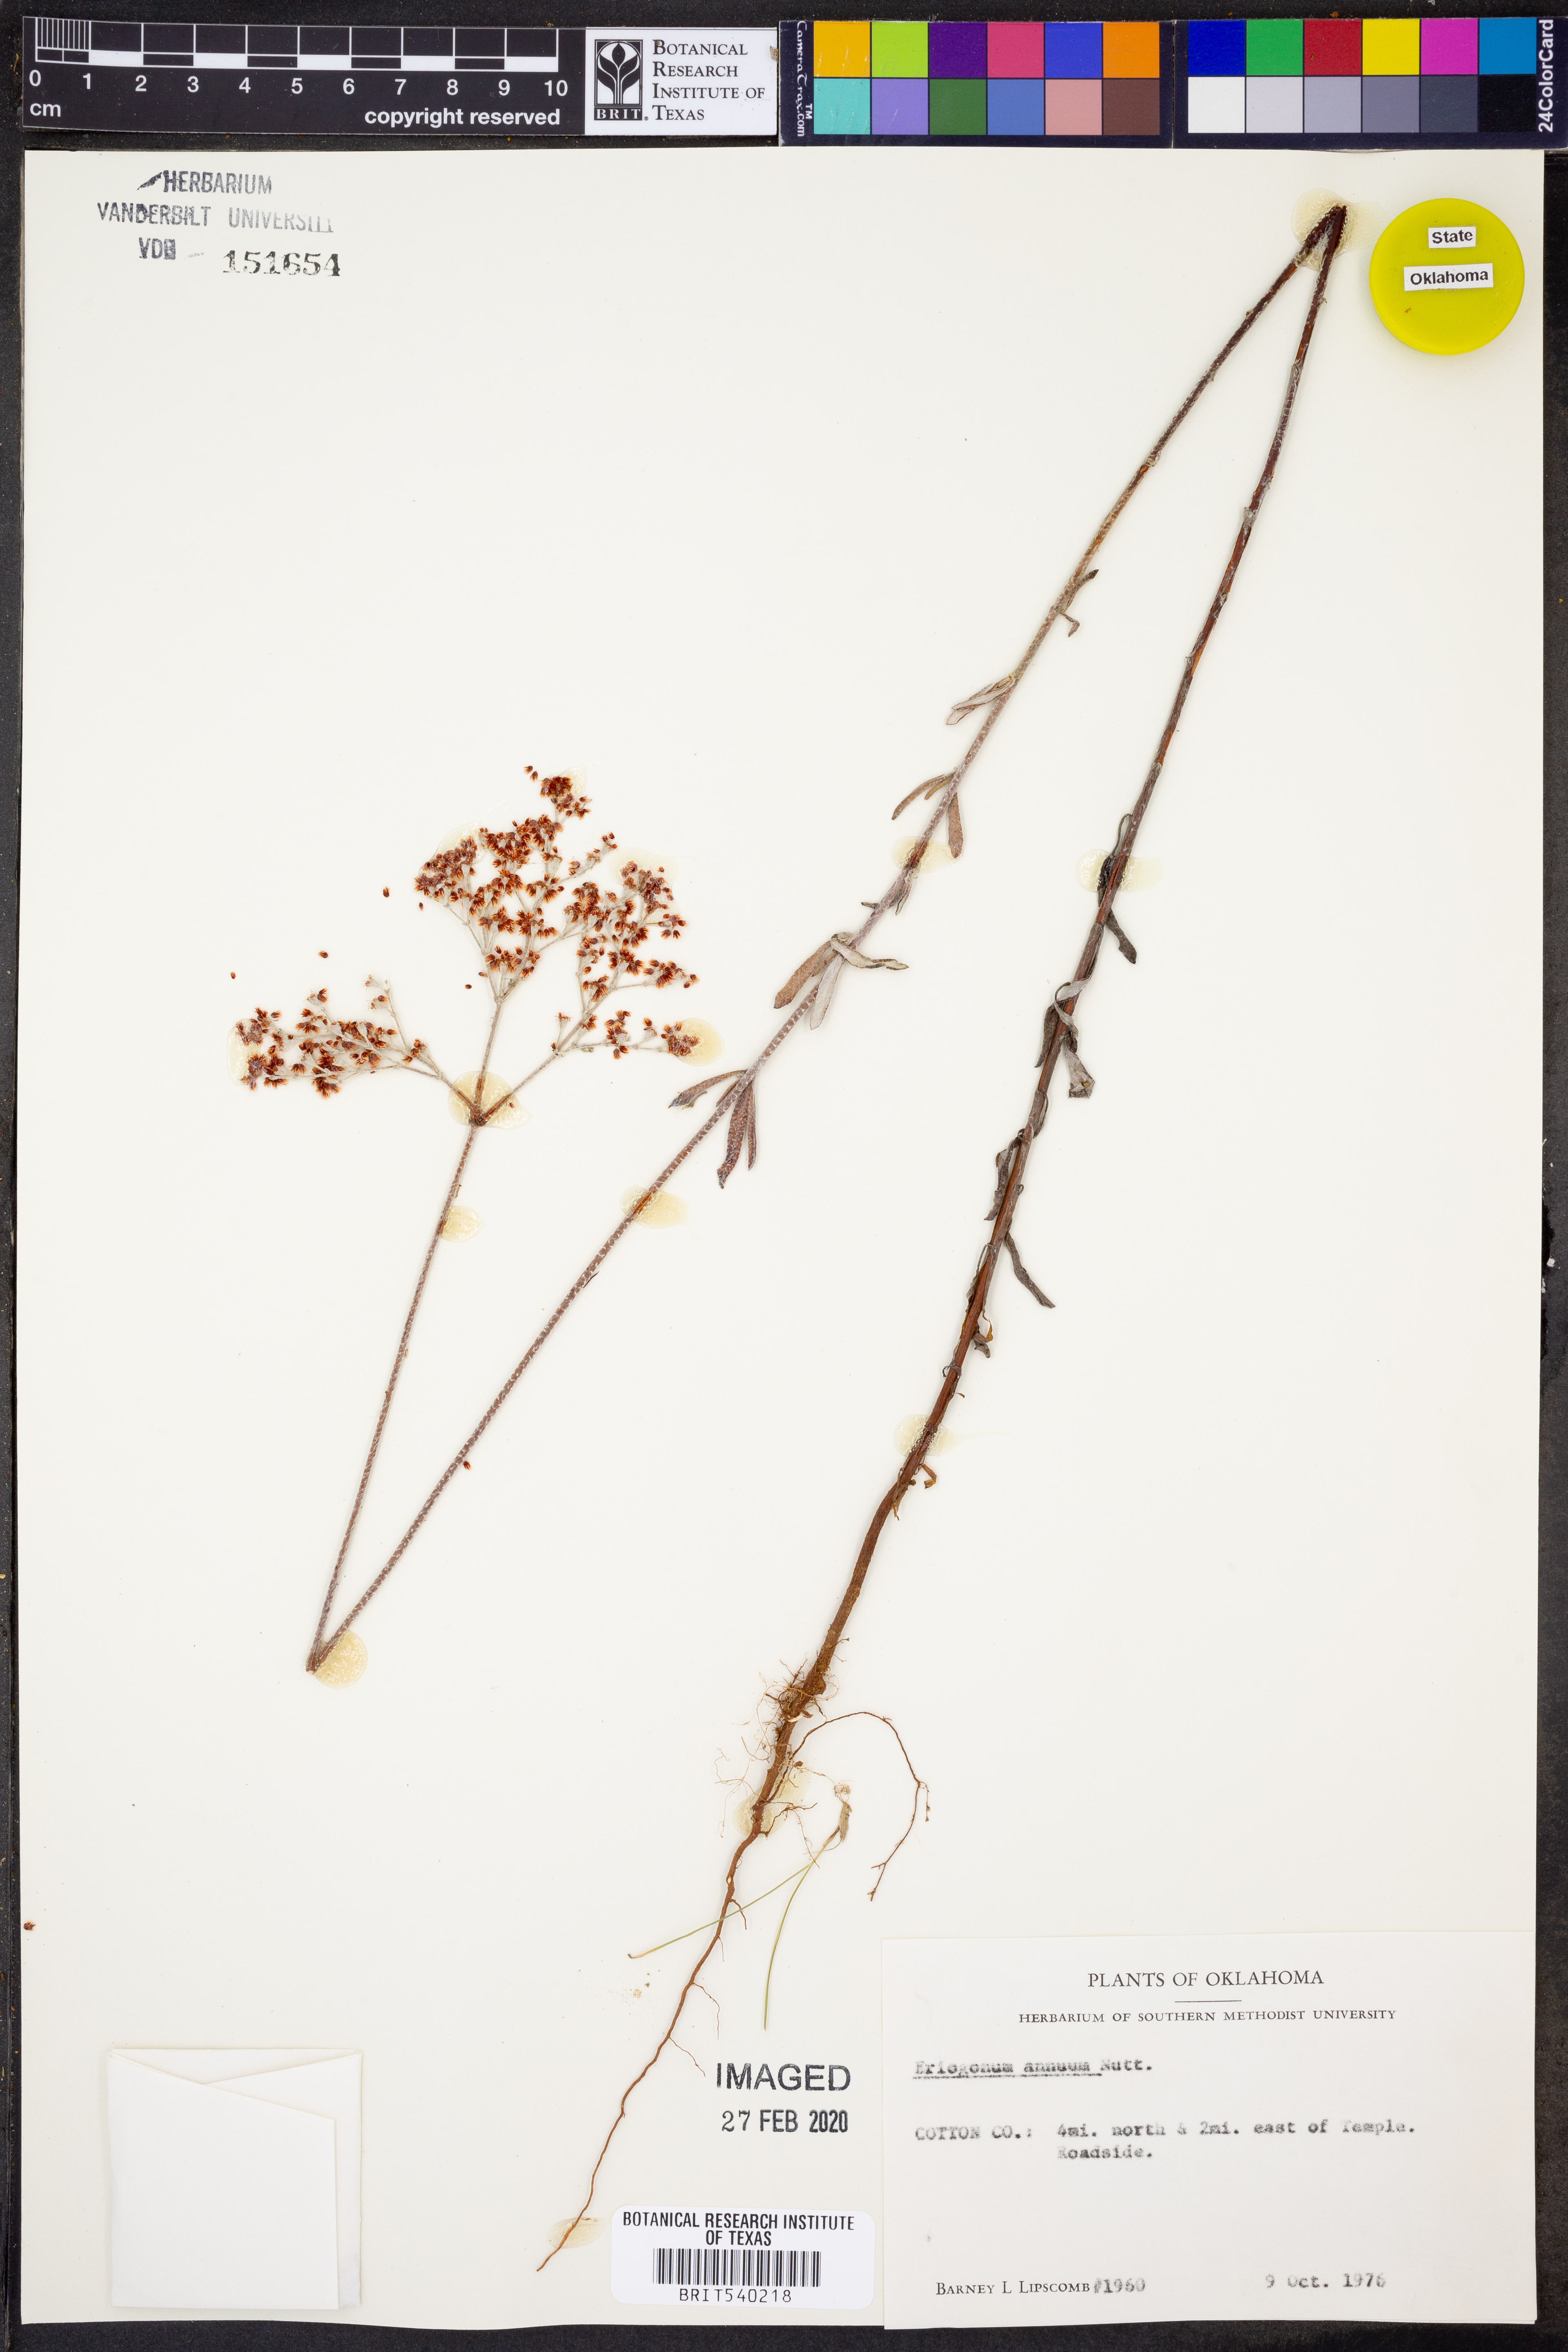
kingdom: Plantae
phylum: Tracheophyta
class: Magnoliopsida
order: Caryophyllales
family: Polygonaceae
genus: Eriogonum
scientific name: Eriogonum annuum
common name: Annual wild buckwheat
